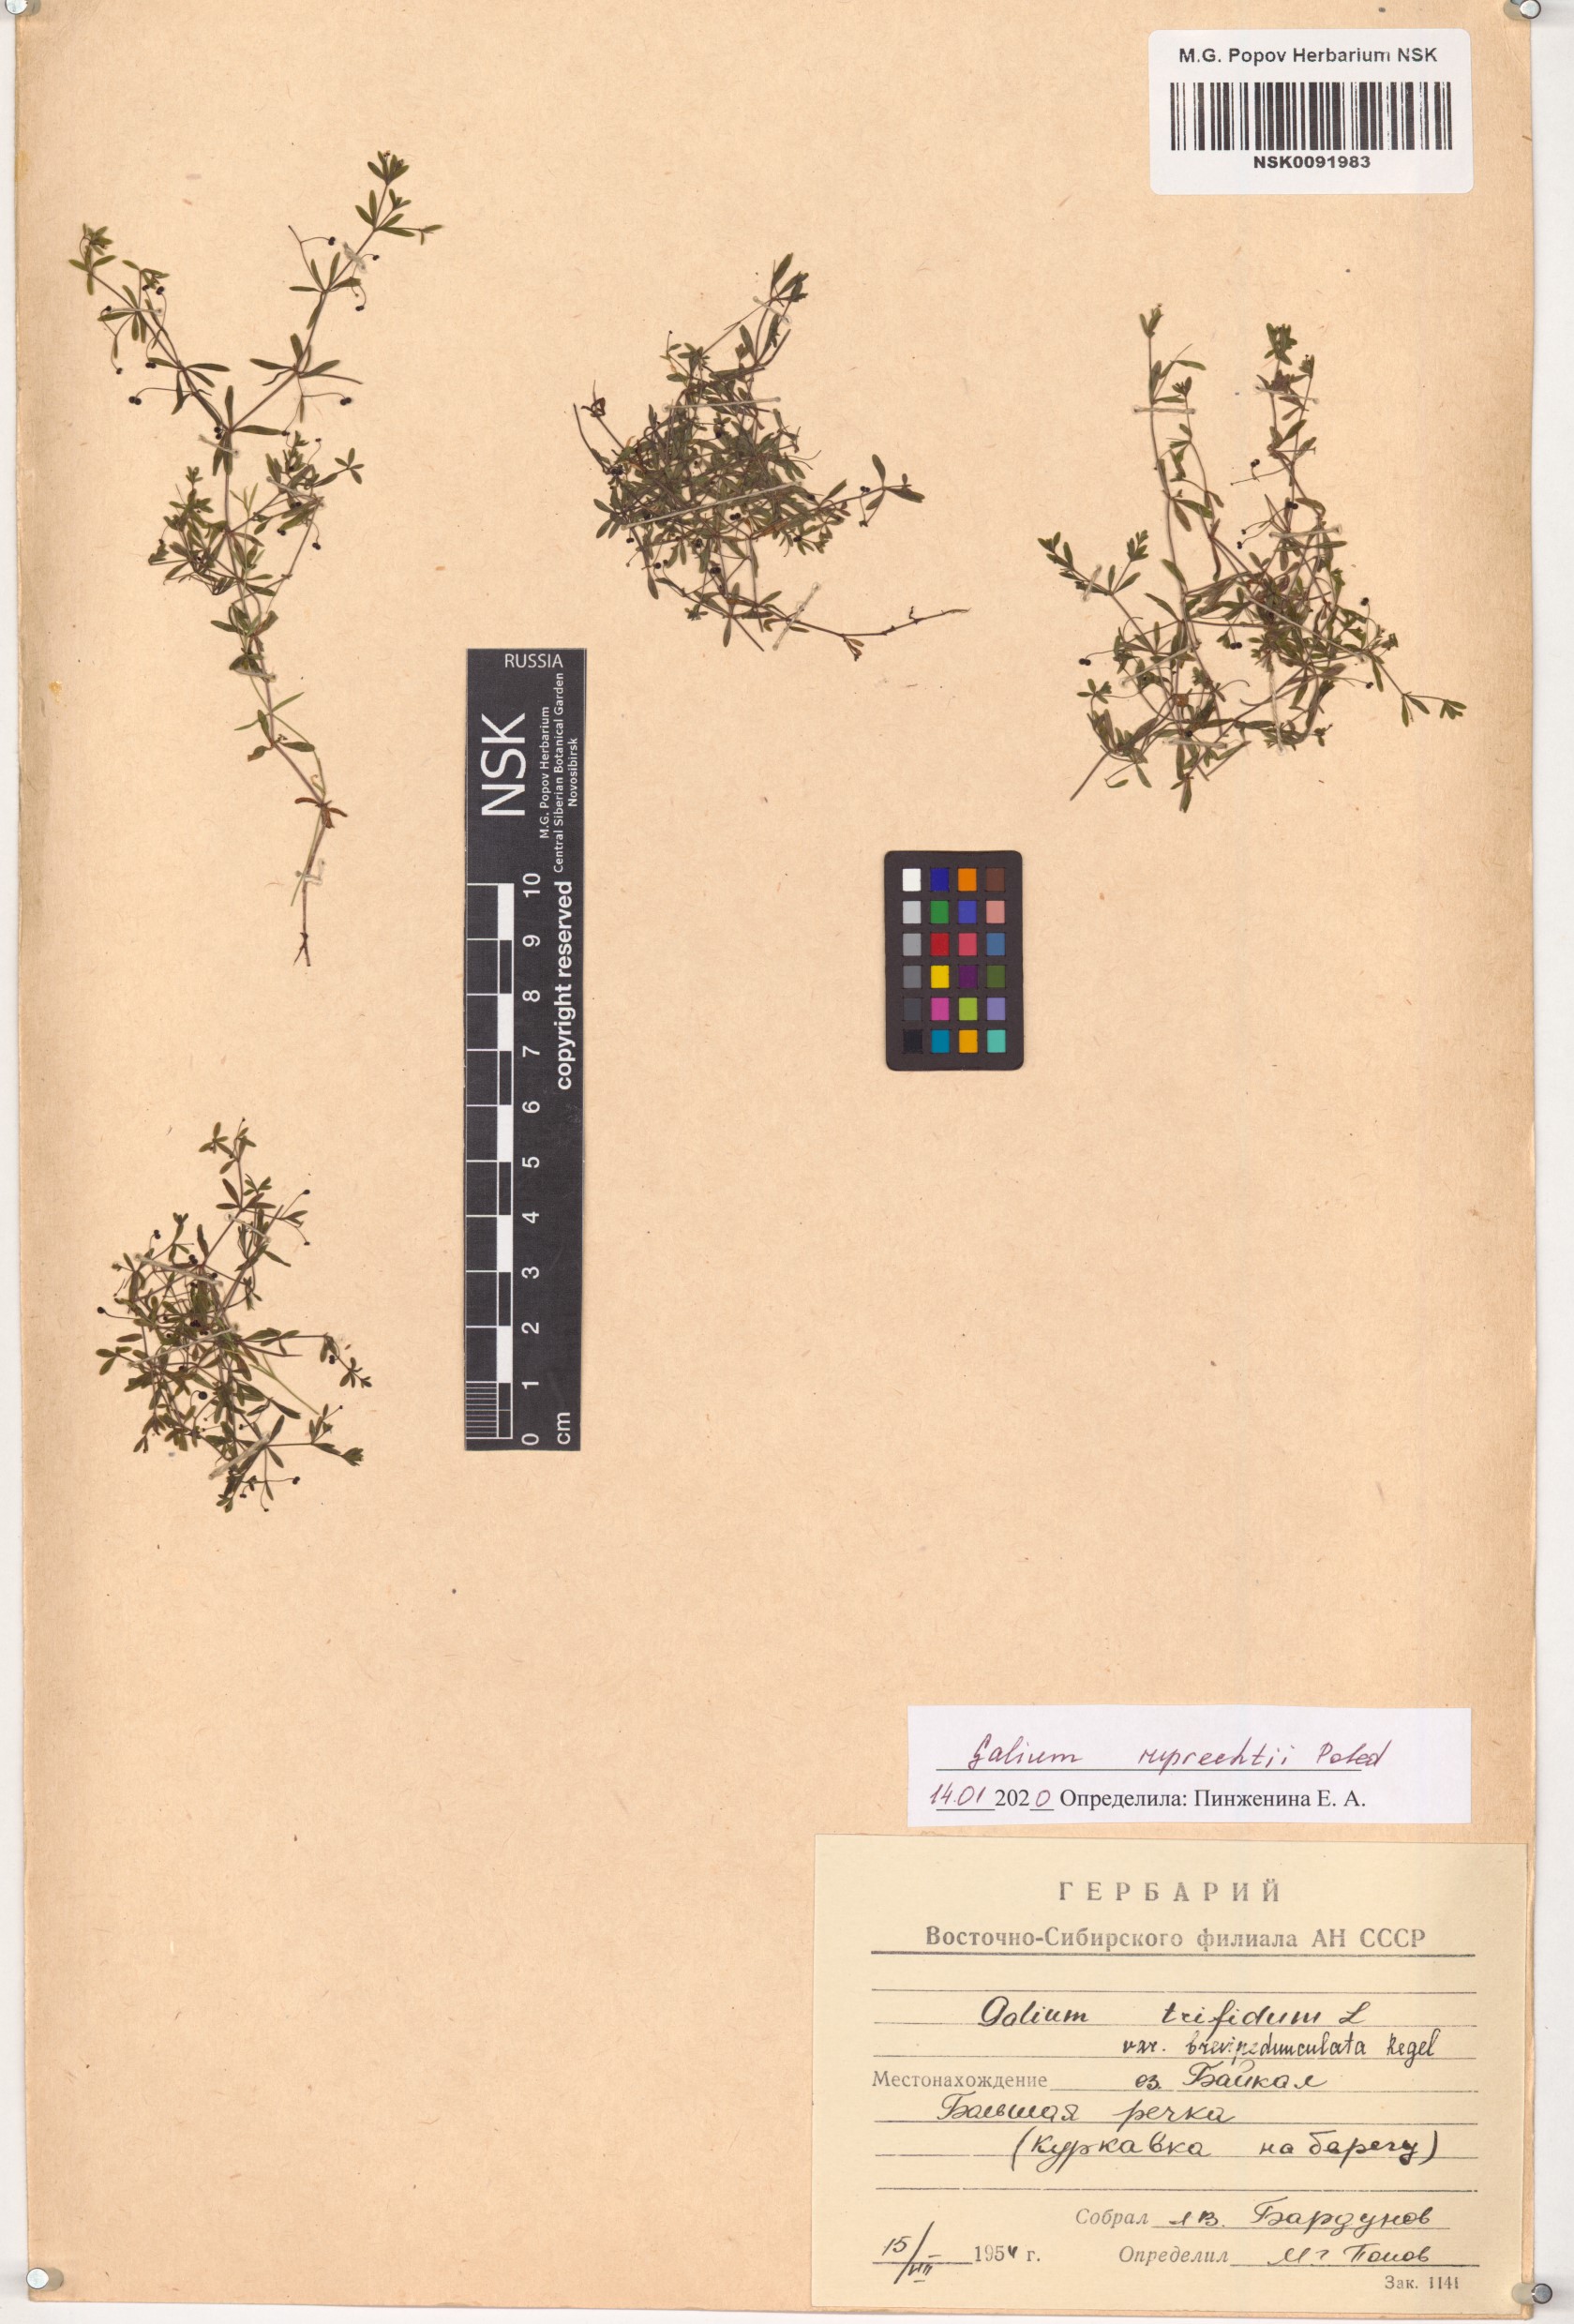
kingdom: Plantae
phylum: Tracheophyta
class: Magnoliopsida
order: Gentianales
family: Rubiaceae
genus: Galium
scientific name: Galium trifidum
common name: Small bedstraw
